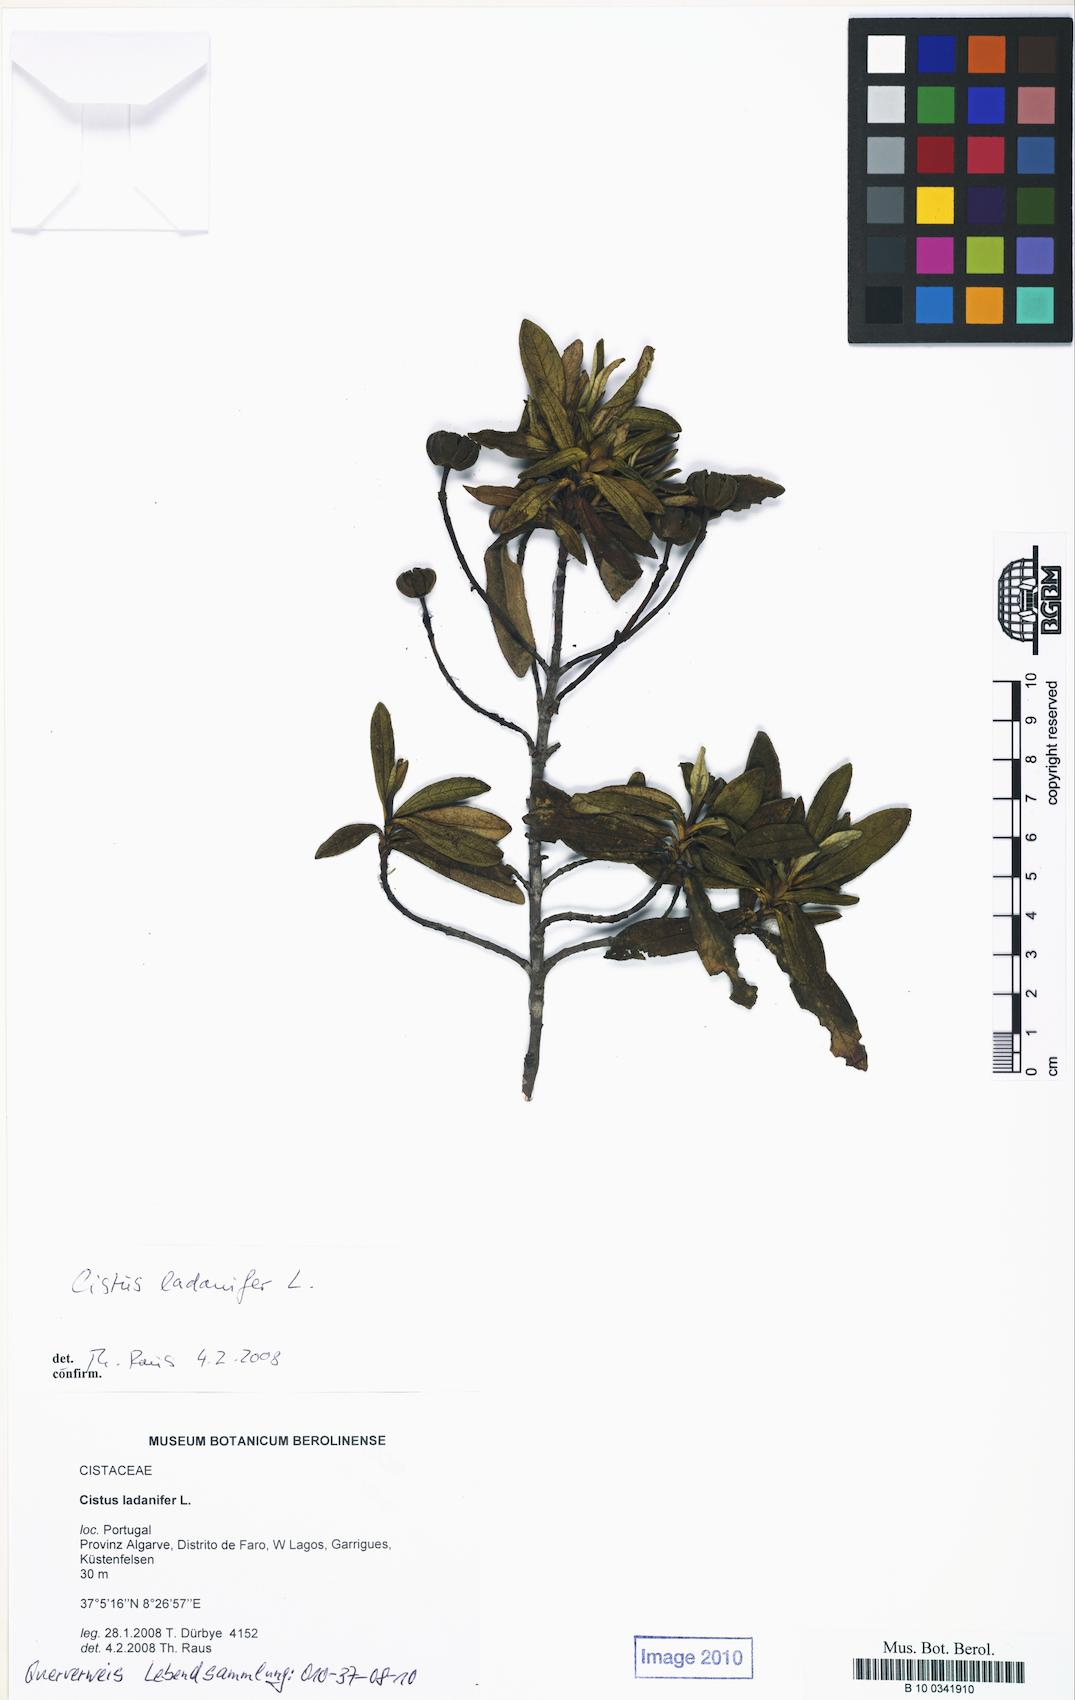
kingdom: Plantae
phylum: Tracheophyta
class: Magnoliopsida
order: Malvales
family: Cistaceae
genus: Cistus
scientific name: Cistus ladanifer
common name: Common gum cistus
